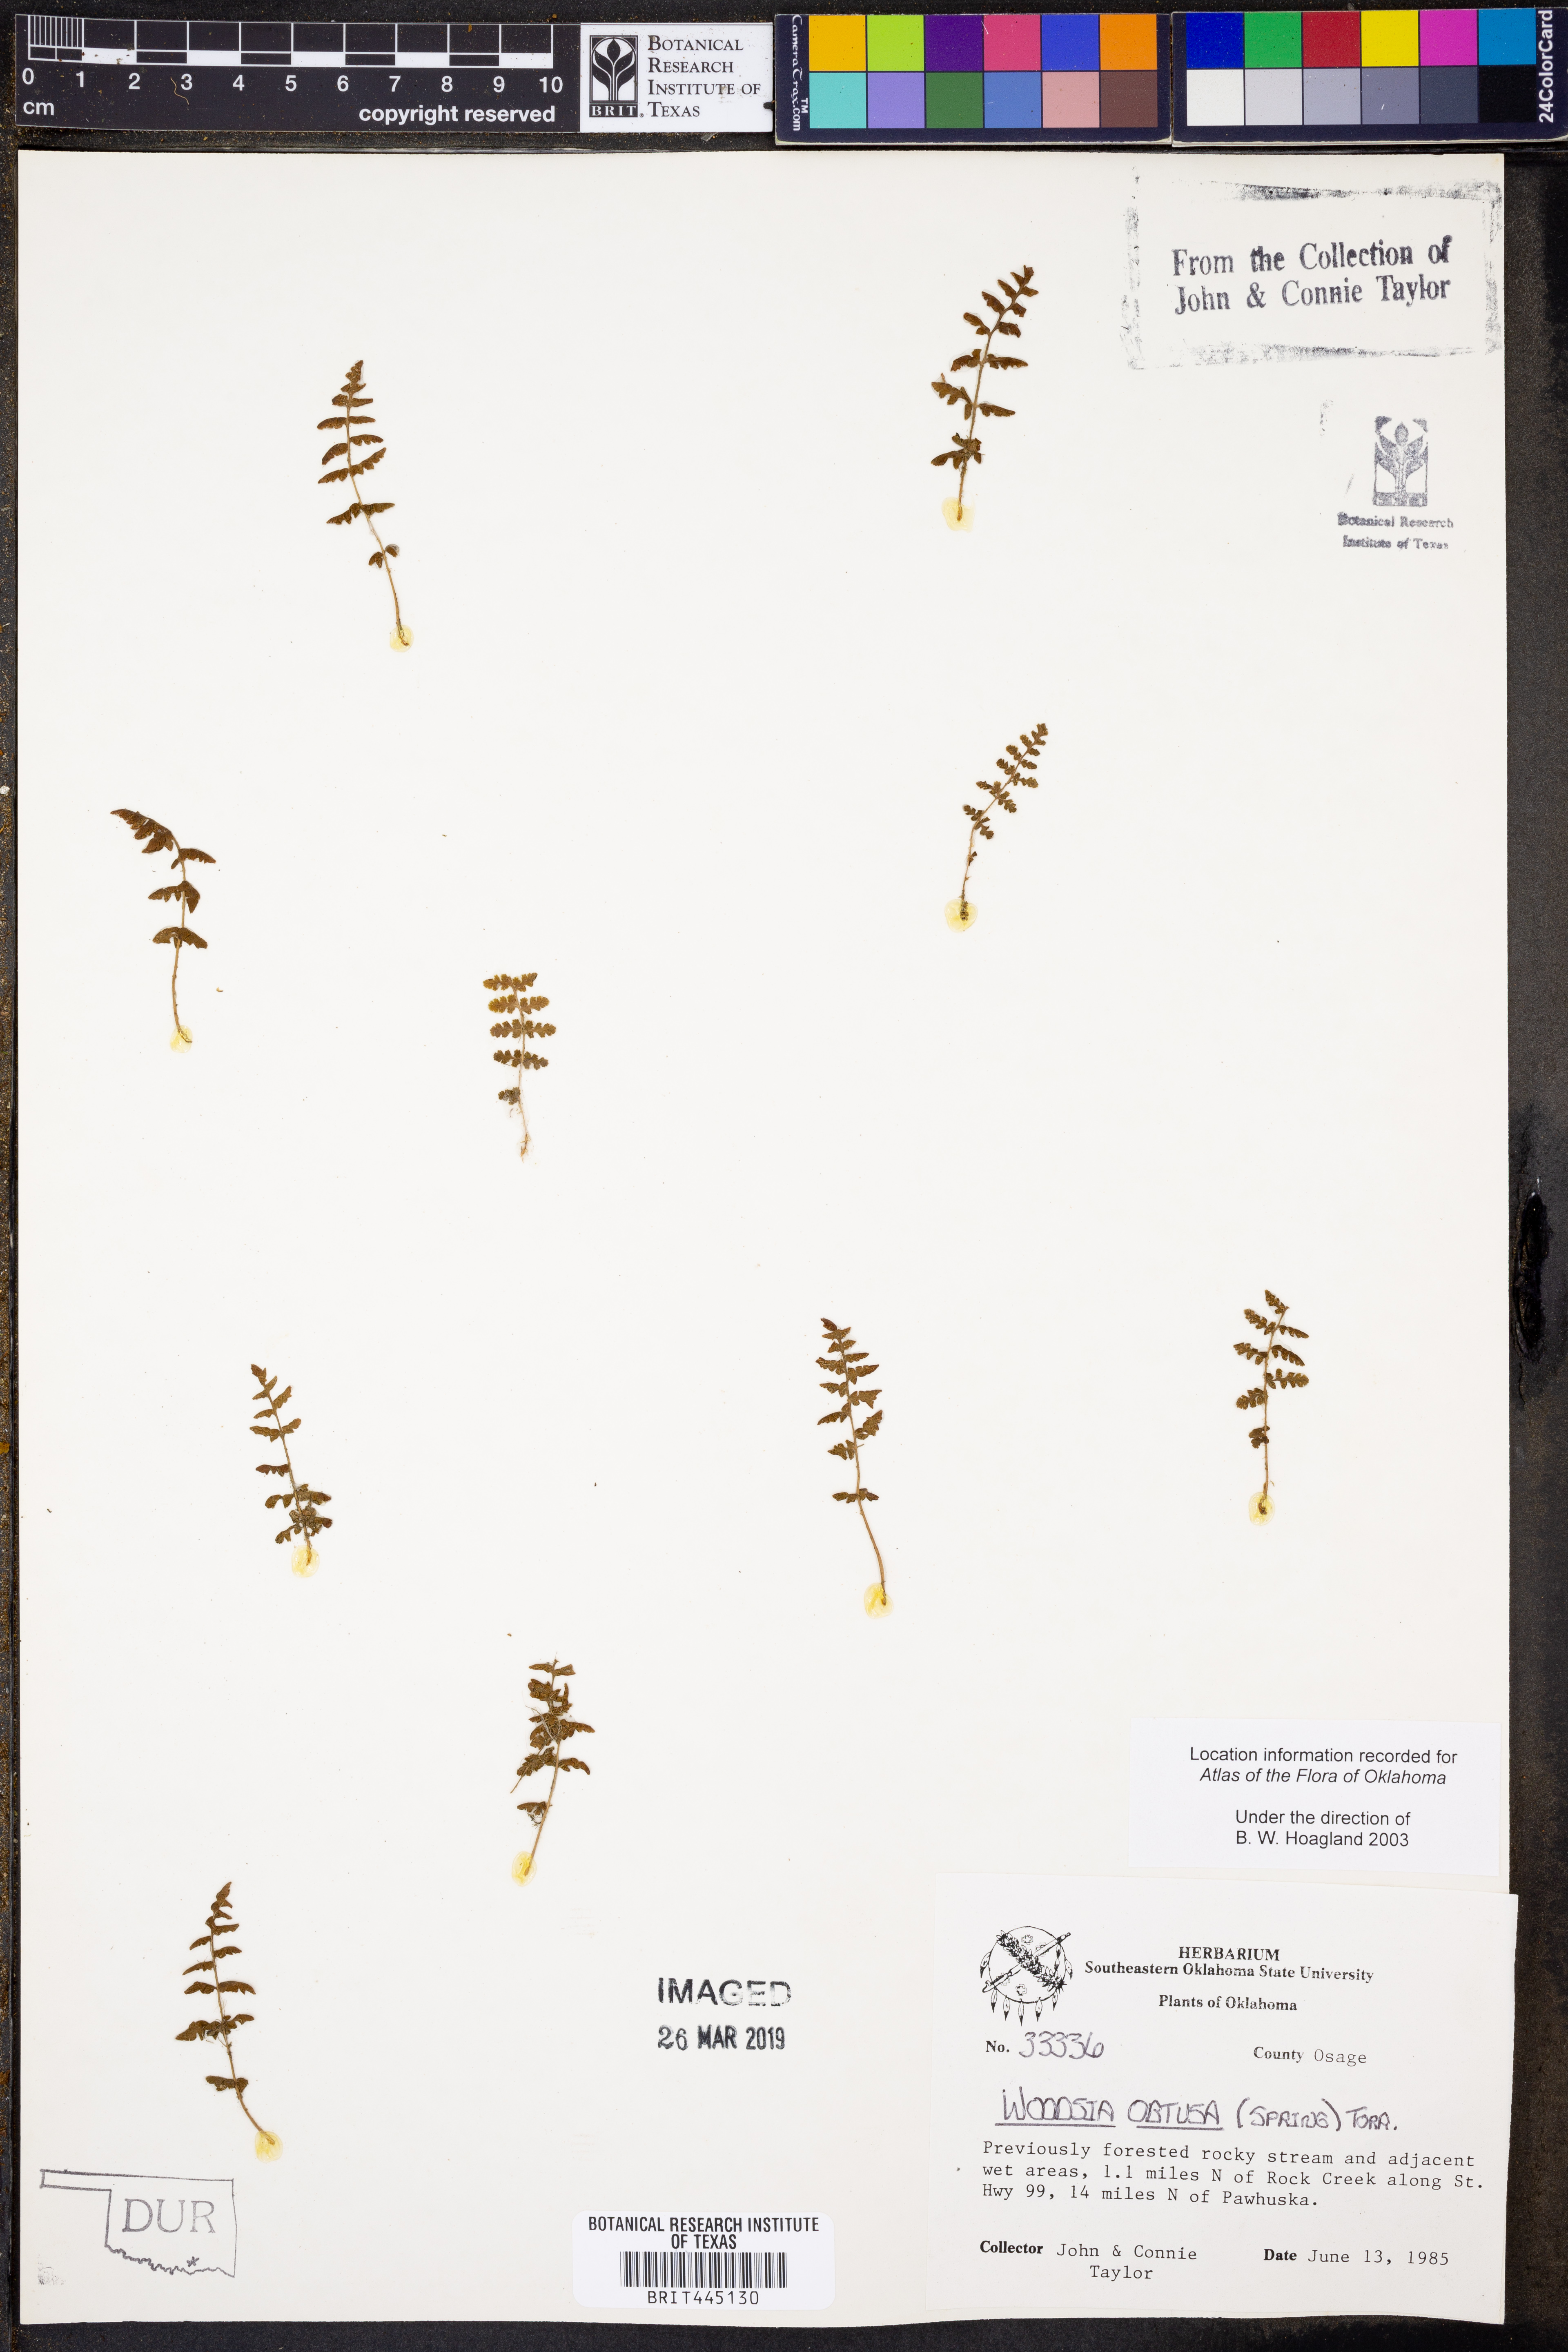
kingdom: Plantae
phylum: Tracheophyta
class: Polypodiopsida
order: Polypodiales
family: Woodsiaceae
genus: Physematium
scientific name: Physematium obtusum
